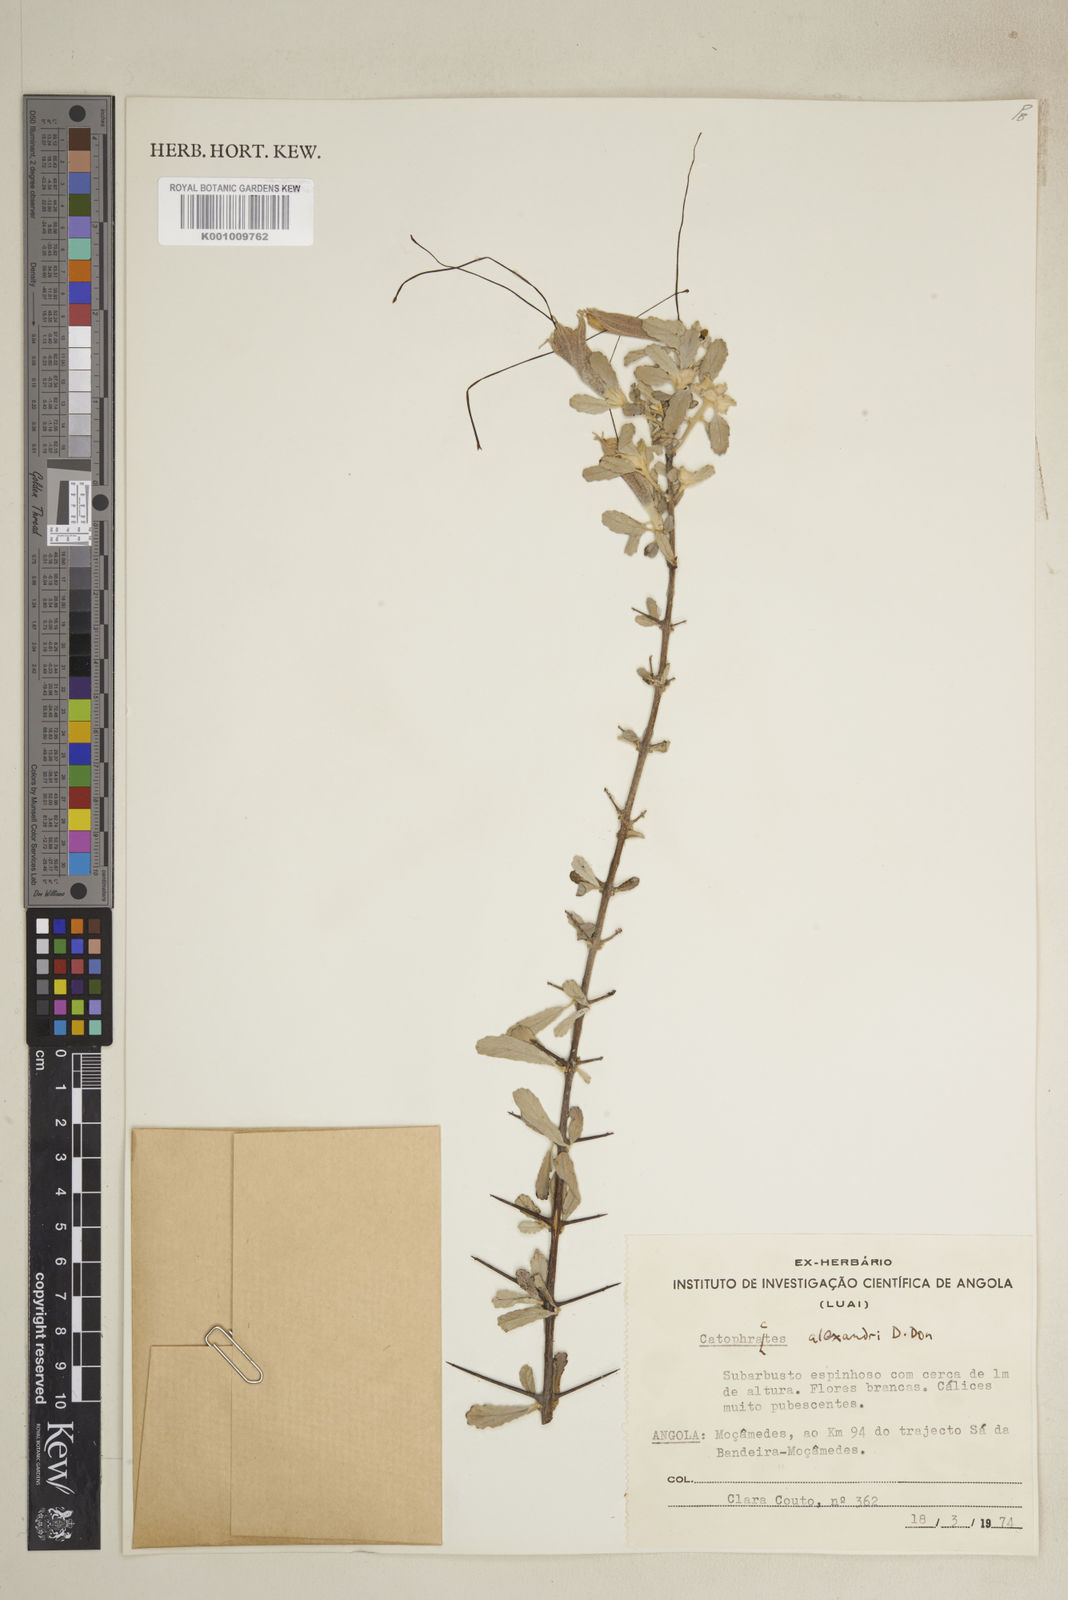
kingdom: Plantae
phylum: Tracheophyta
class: Magnoliopsida
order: Lamiales
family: Bignoniaceae
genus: Catophractes
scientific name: Catophractes alexandri
